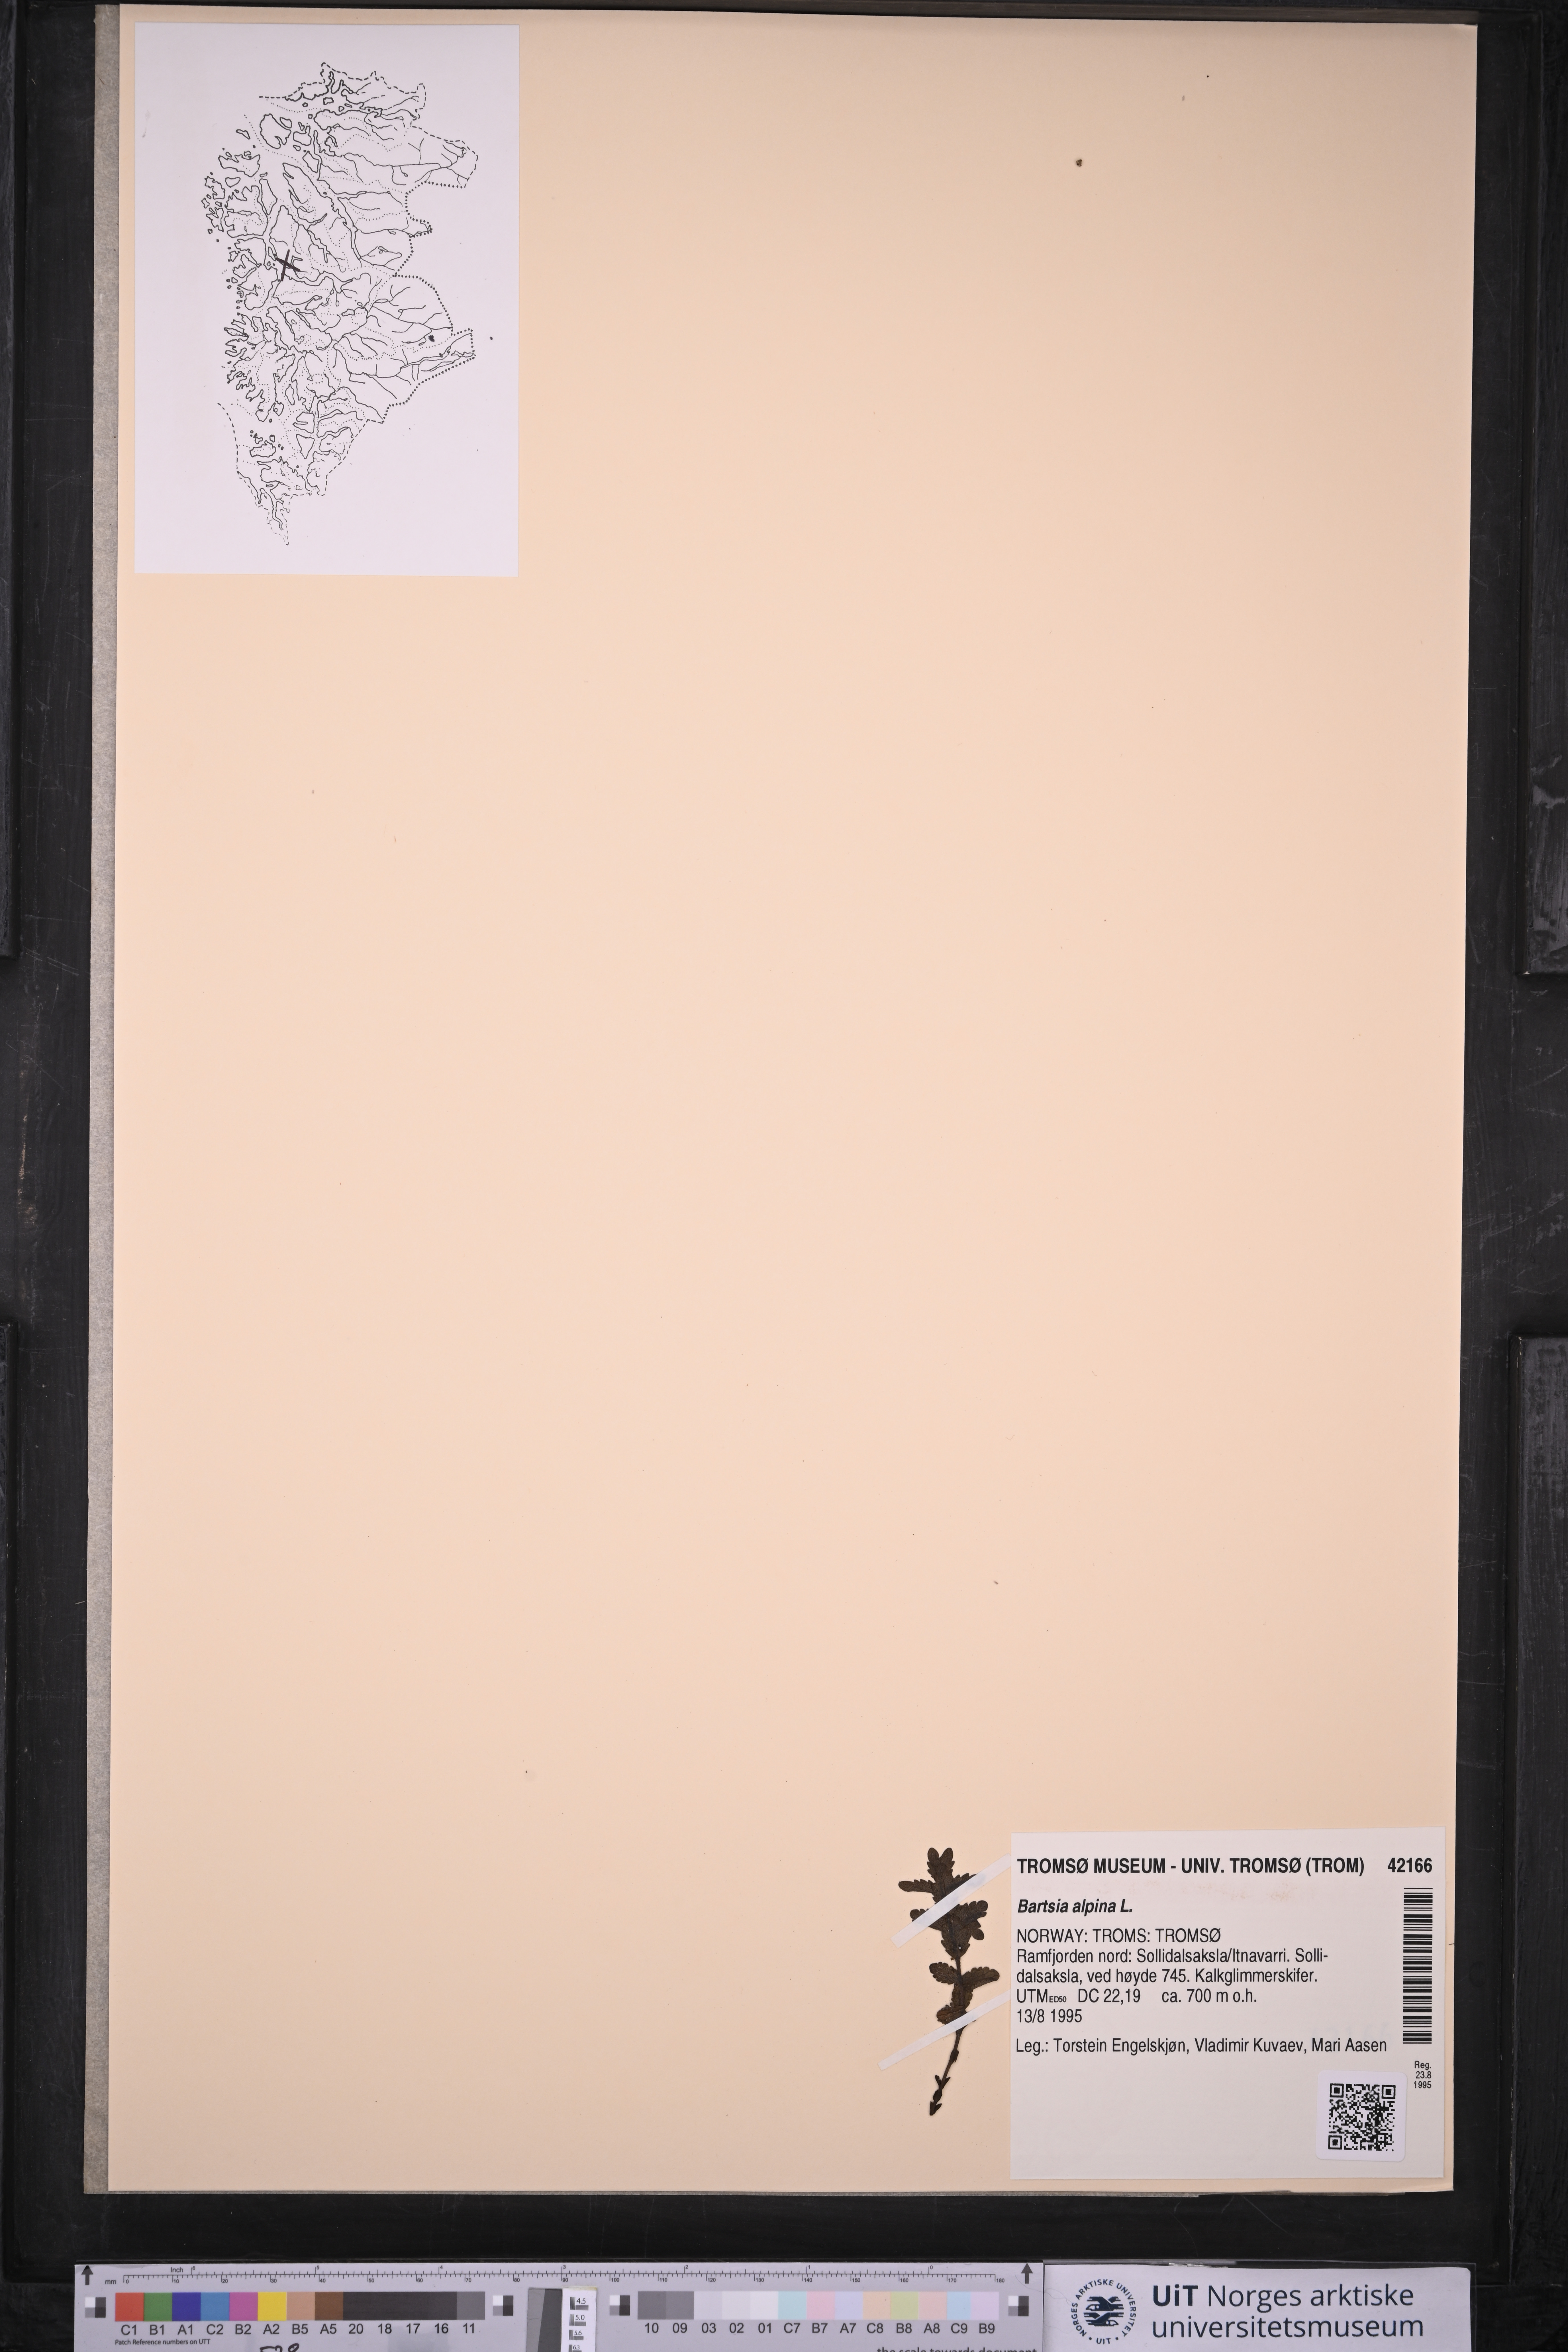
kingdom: Plantae
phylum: Tracheophyta
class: Magnoliopsida
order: Lamiales
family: Orobanchaceae
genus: Bartsia
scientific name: Bartsia alpina
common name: Alpine bartsia
